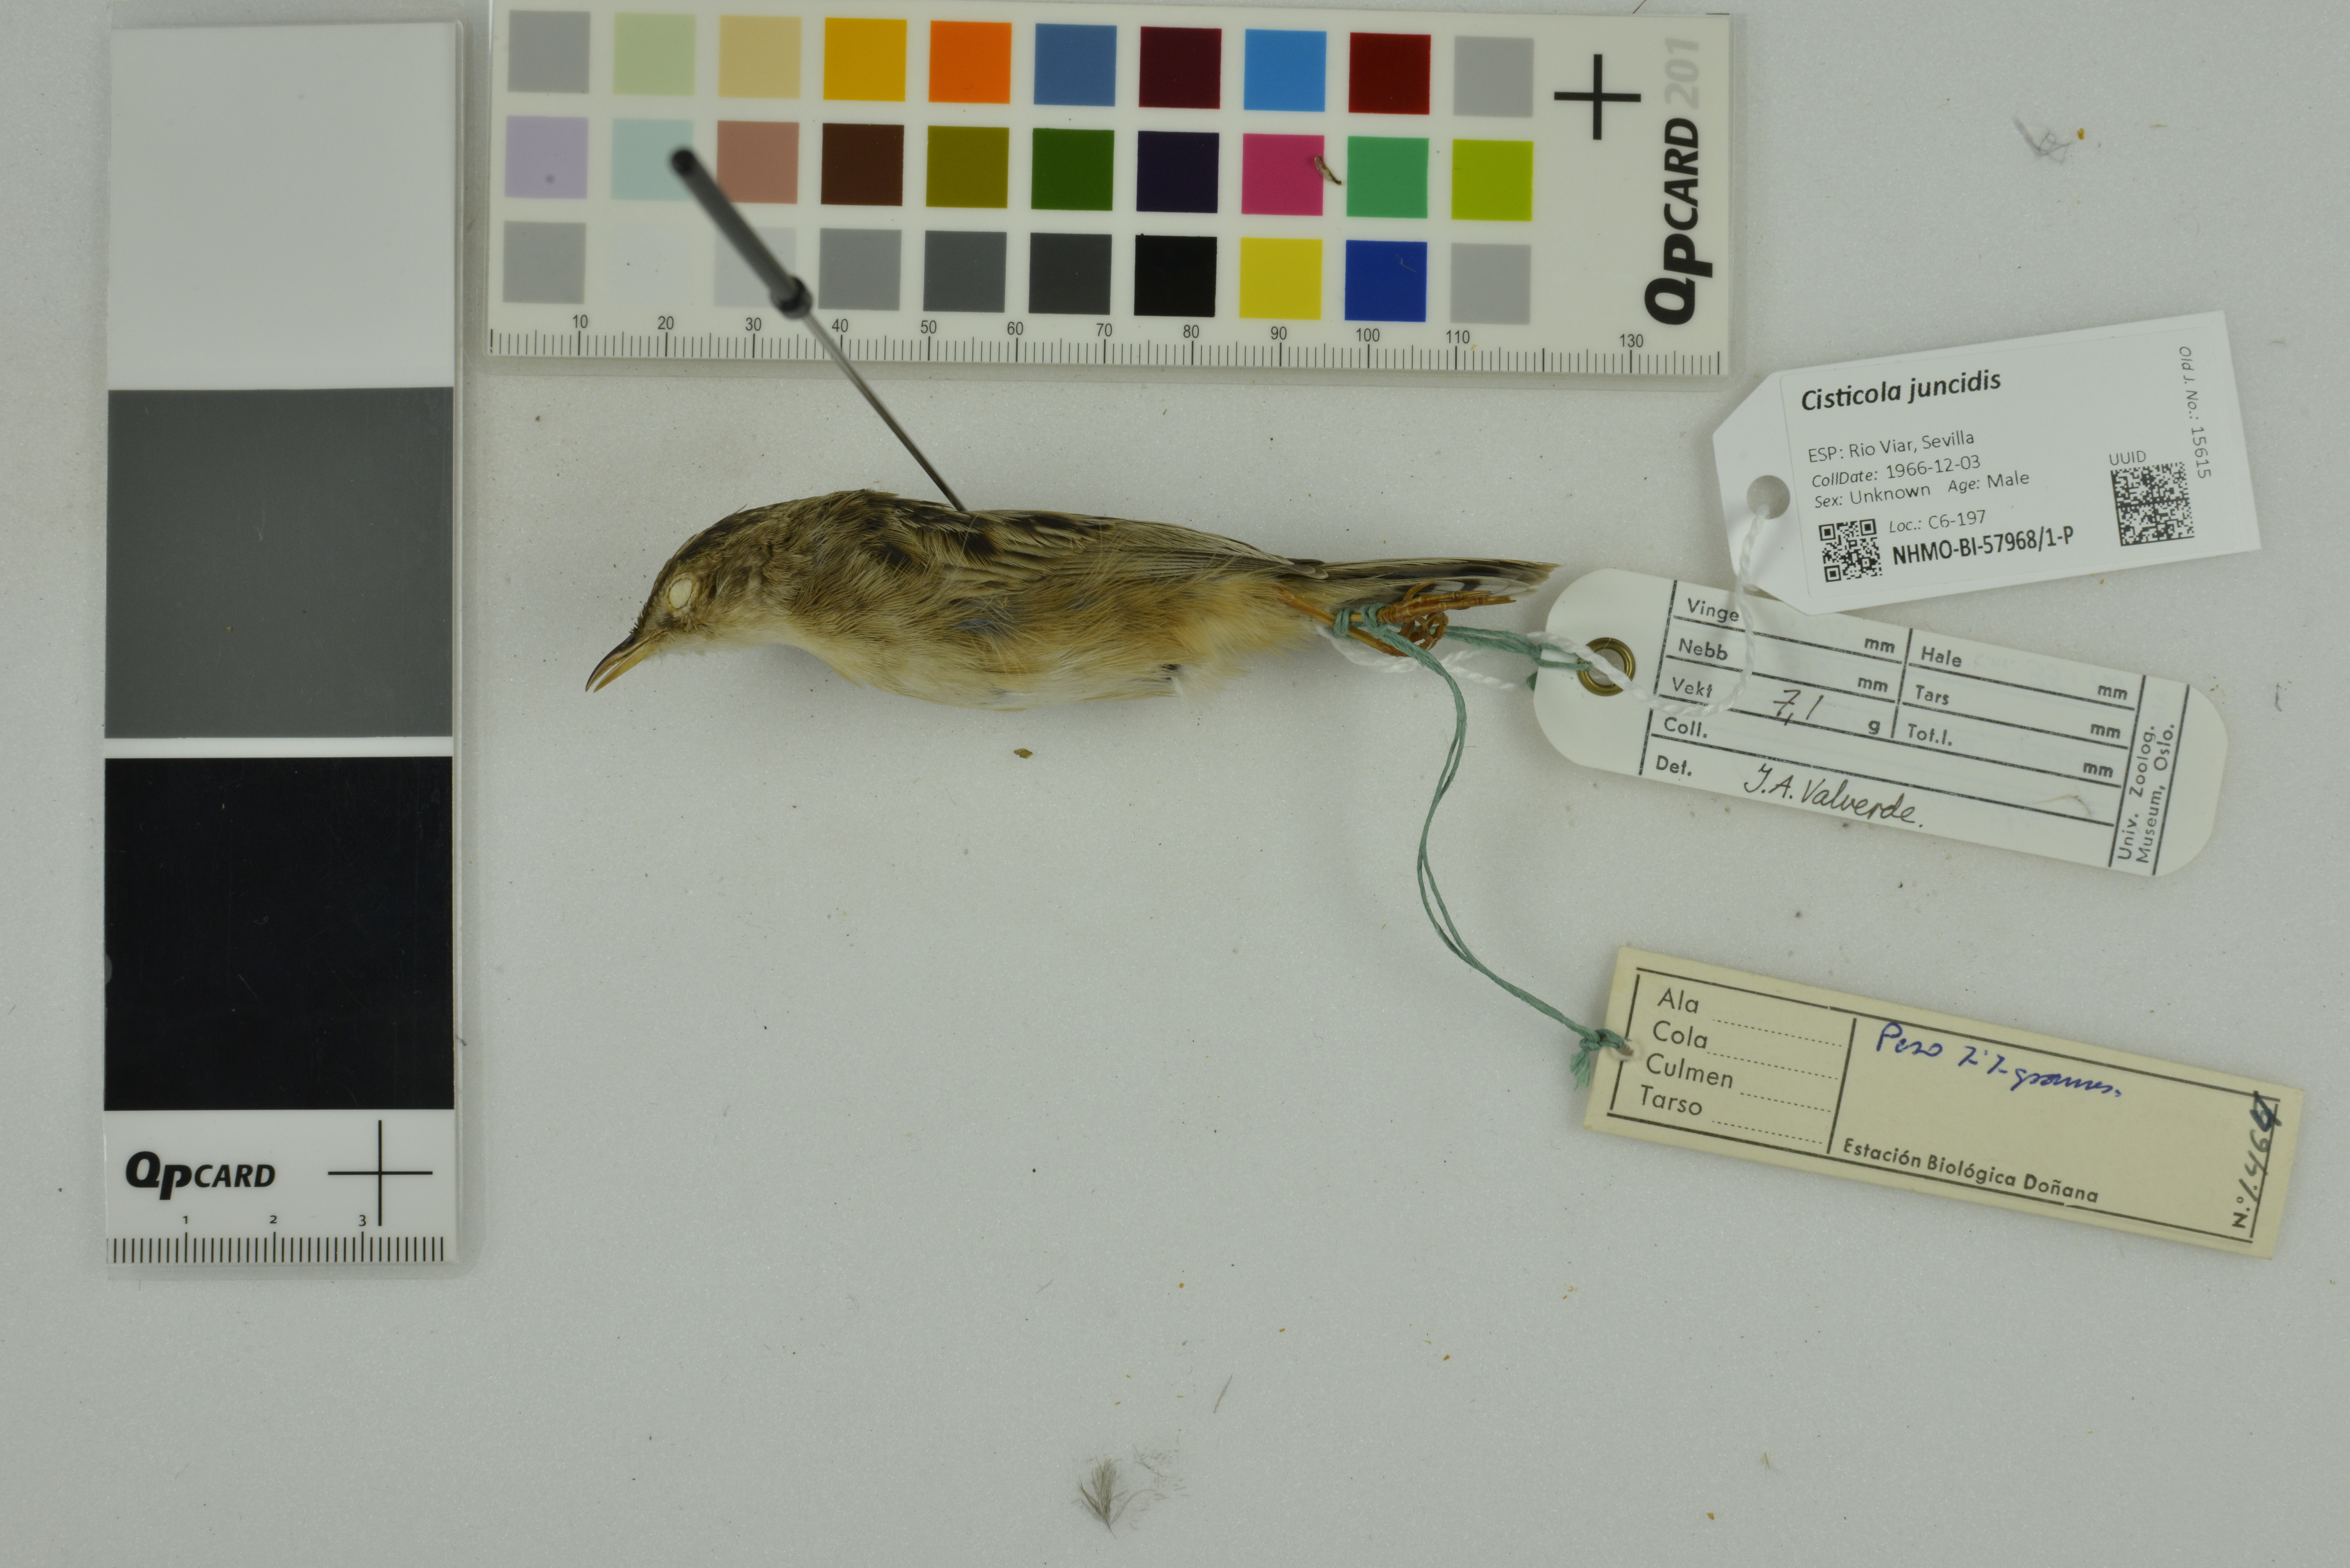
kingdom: Animalia
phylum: Chordata
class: Aves
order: Passeriformes
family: Cisticolidae
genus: Cisticola
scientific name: Cisticola juncidis
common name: Zitting cisticola
